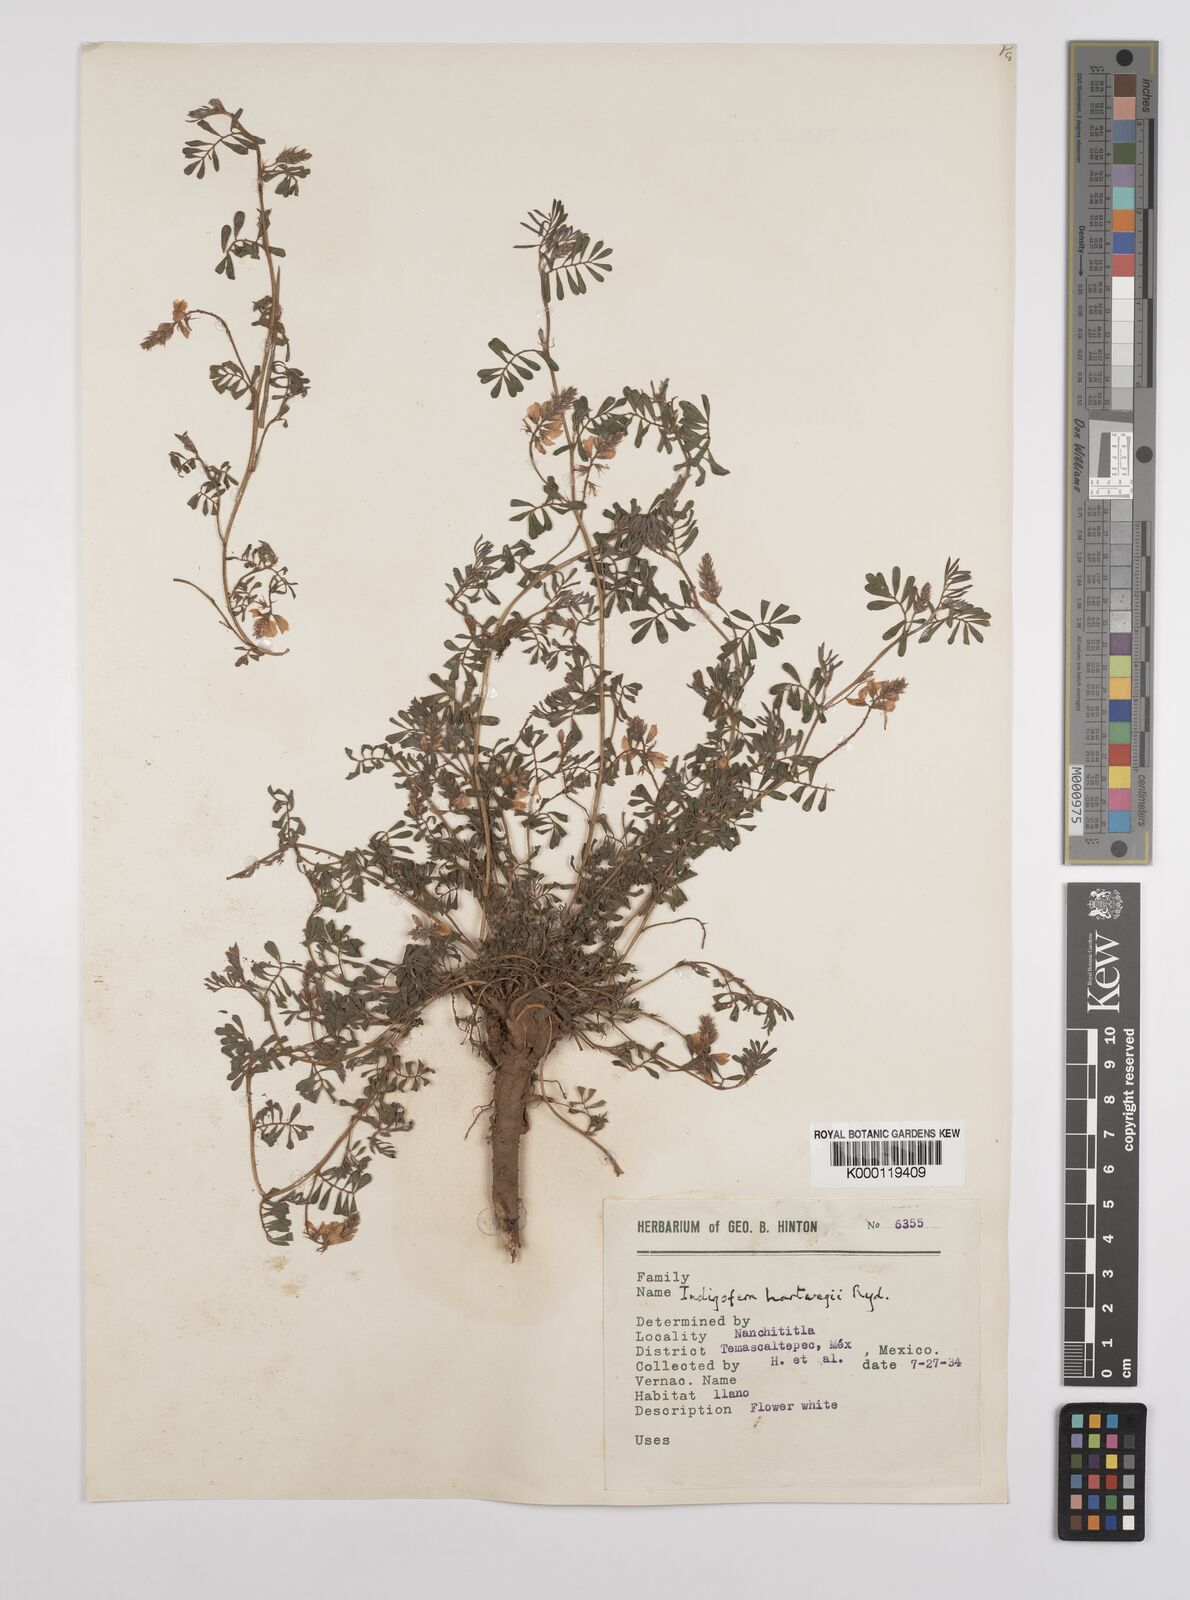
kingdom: Plantae
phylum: Tracheophyta
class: Magnoliopsida
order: Fabales
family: Fabaceae
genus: Indigofera
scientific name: Indigofera miniata
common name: Coast indigo
